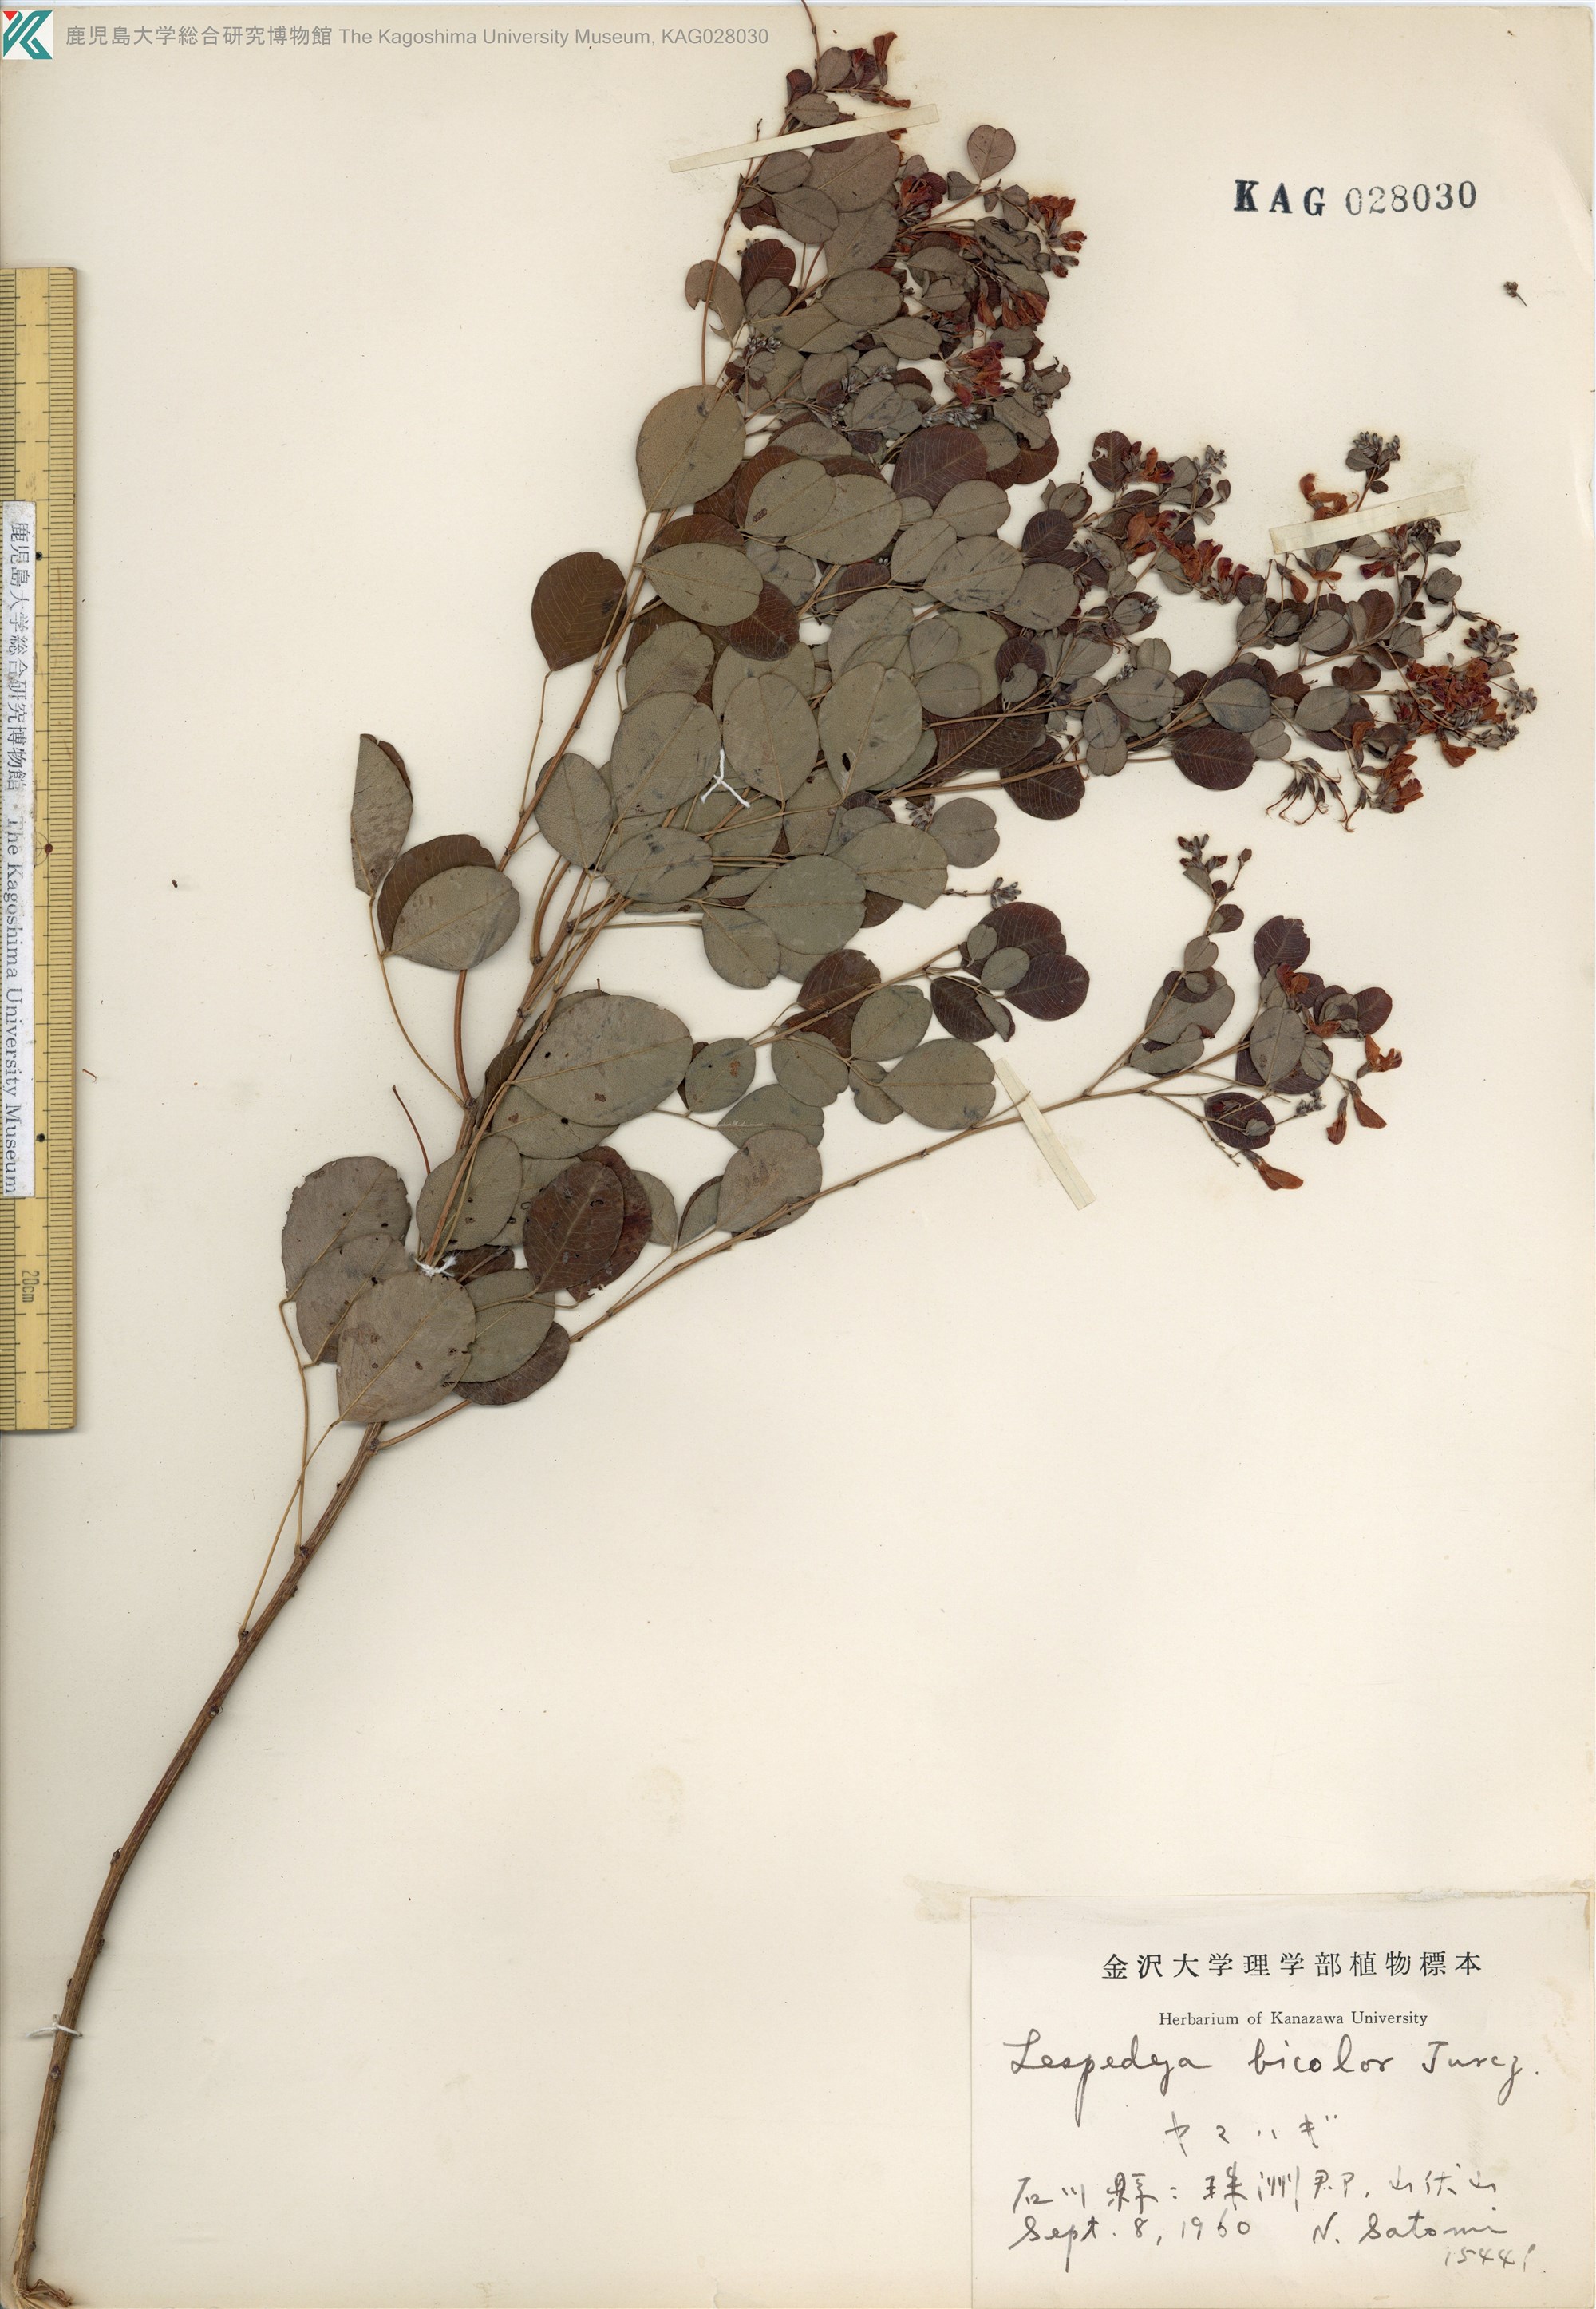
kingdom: Plantae
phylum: Tracheophyta
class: Magnoliopsida
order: Fabales
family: Fabaceae
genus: Lespedeza
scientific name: Lespedeza bicolor
